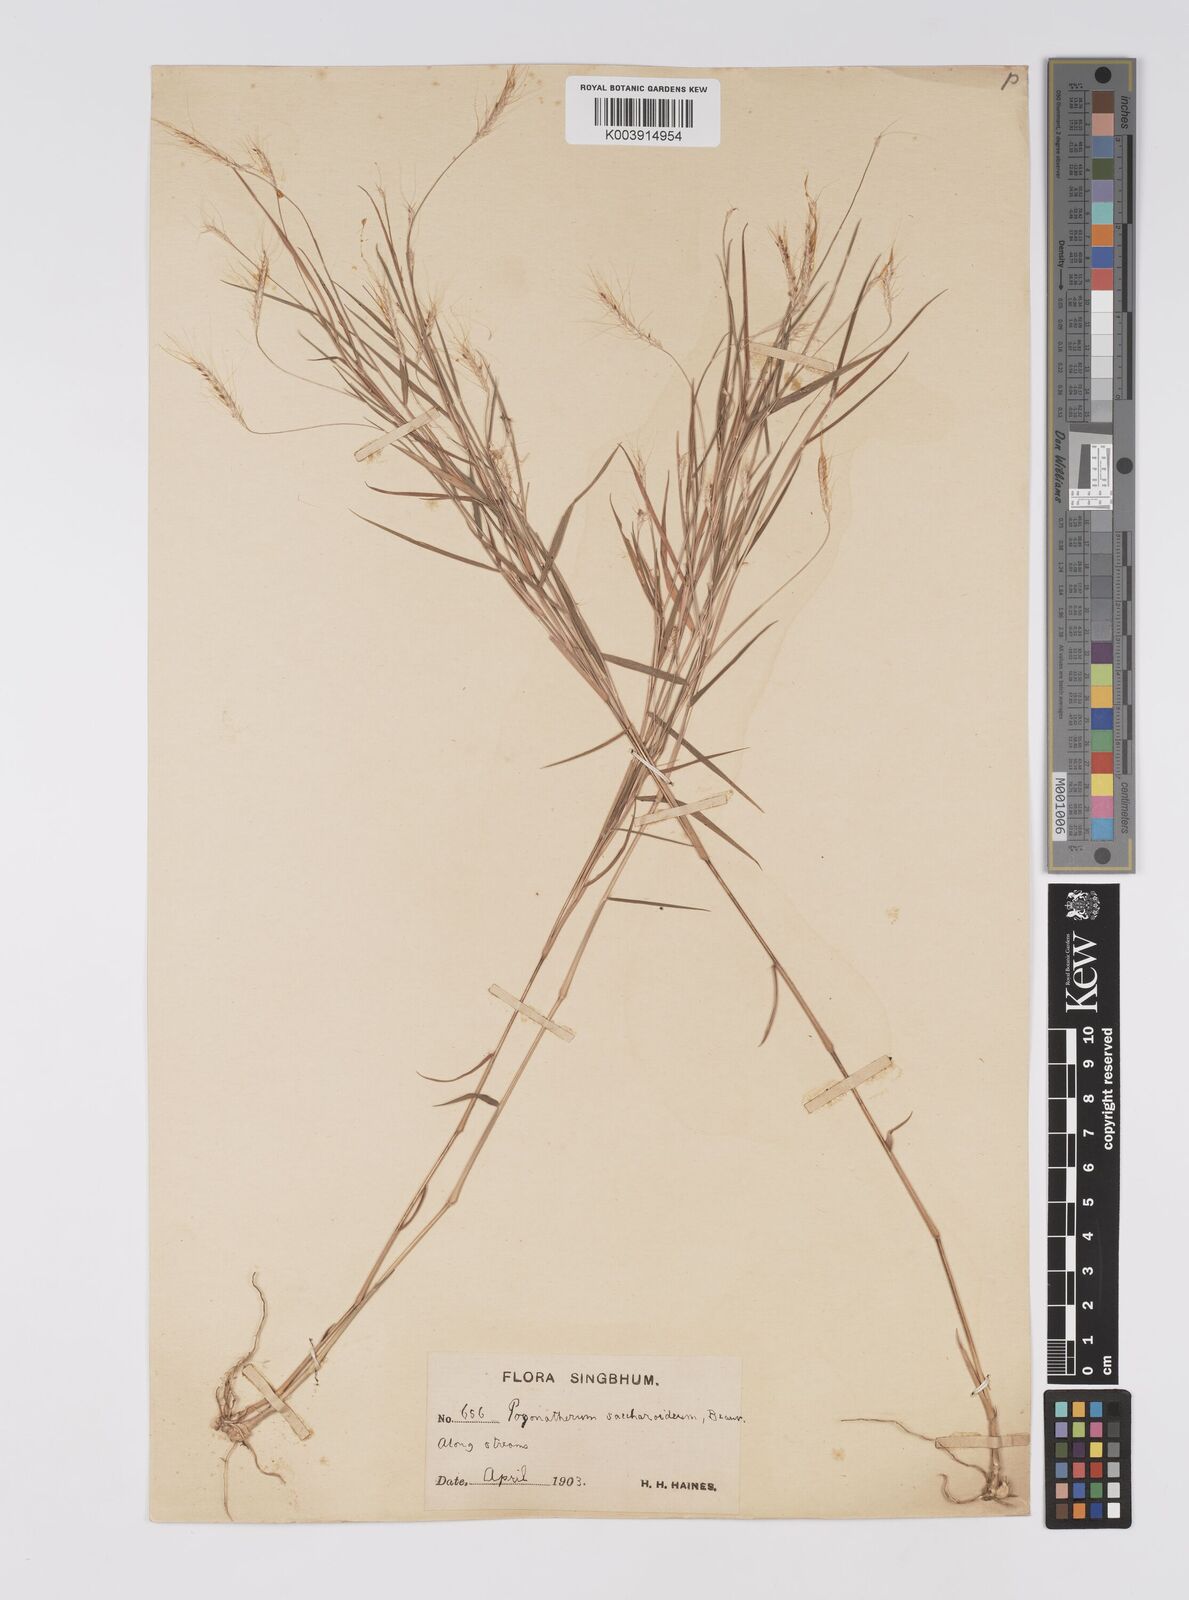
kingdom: Plantae
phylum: Tracheophyta
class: Liliopsida
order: Poales
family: Poaceae
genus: Pogonatherum
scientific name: Pogonatherum paniceum
